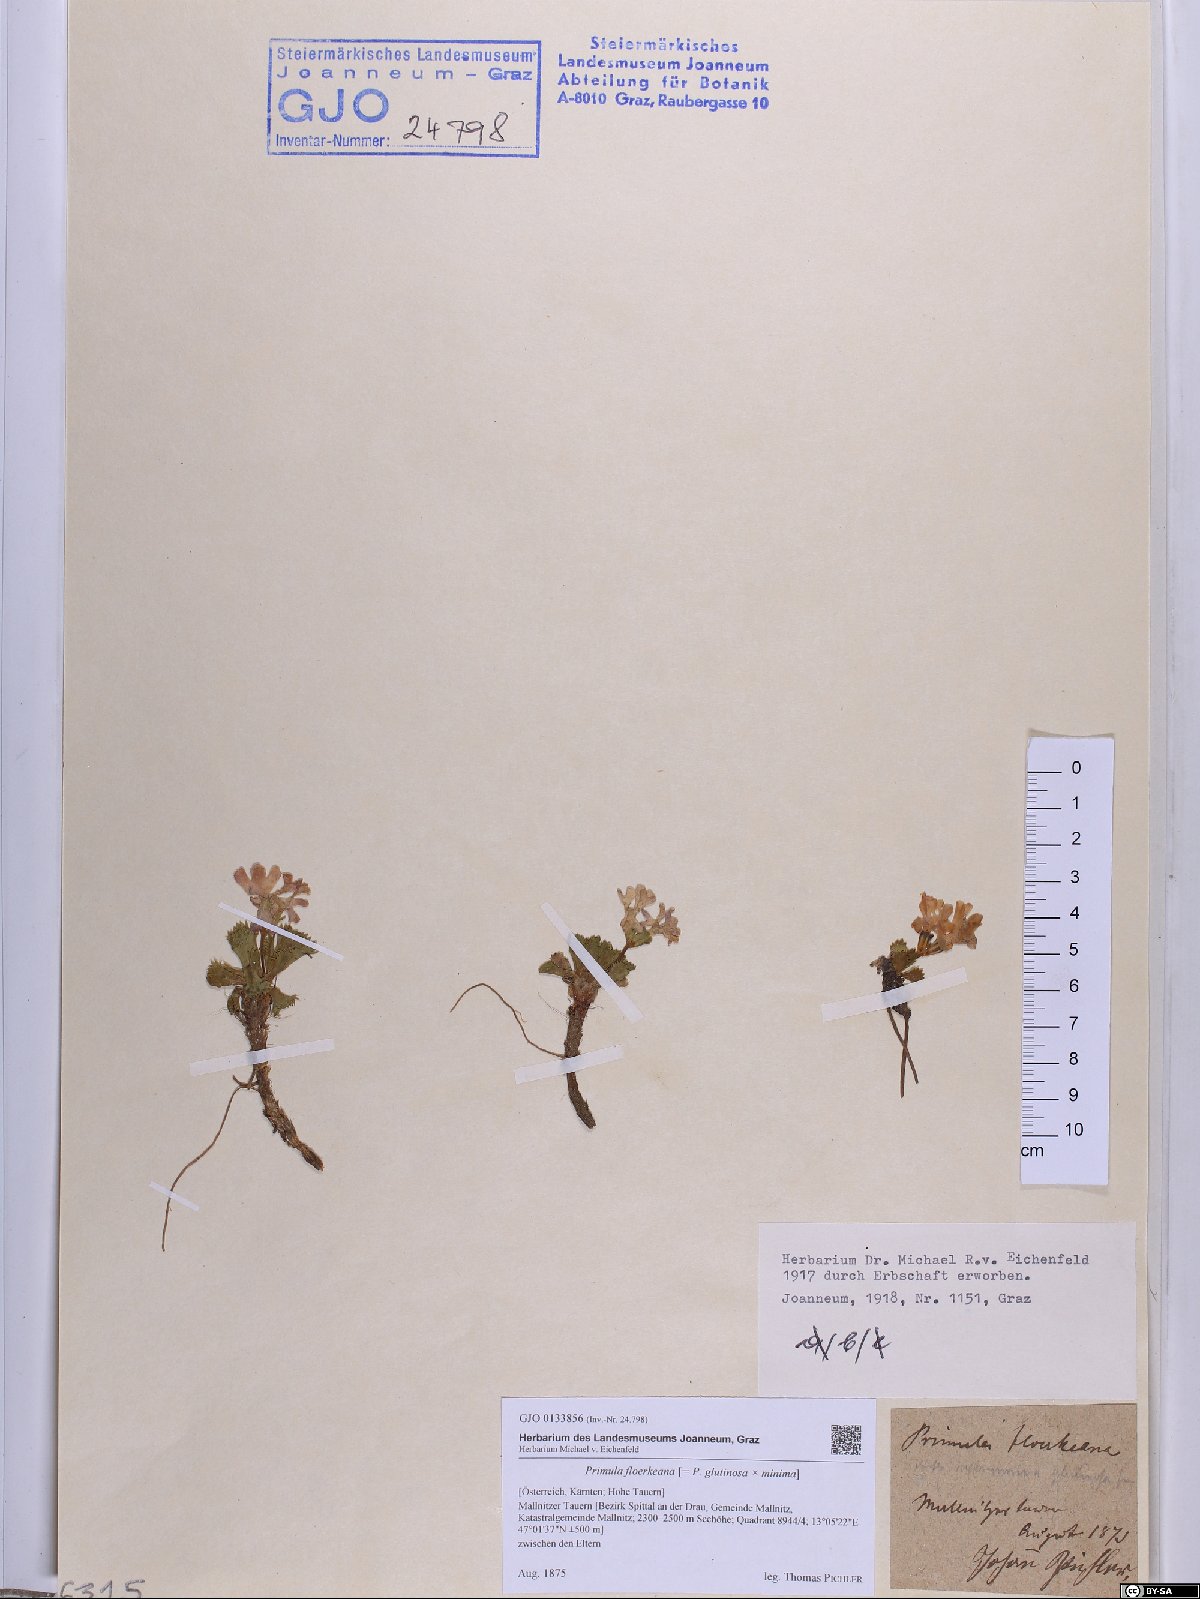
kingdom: Plantae
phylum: Tracheophyta
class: Magnoliopsida
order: Ericales
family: Primulaceae
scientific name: Primulaceae
